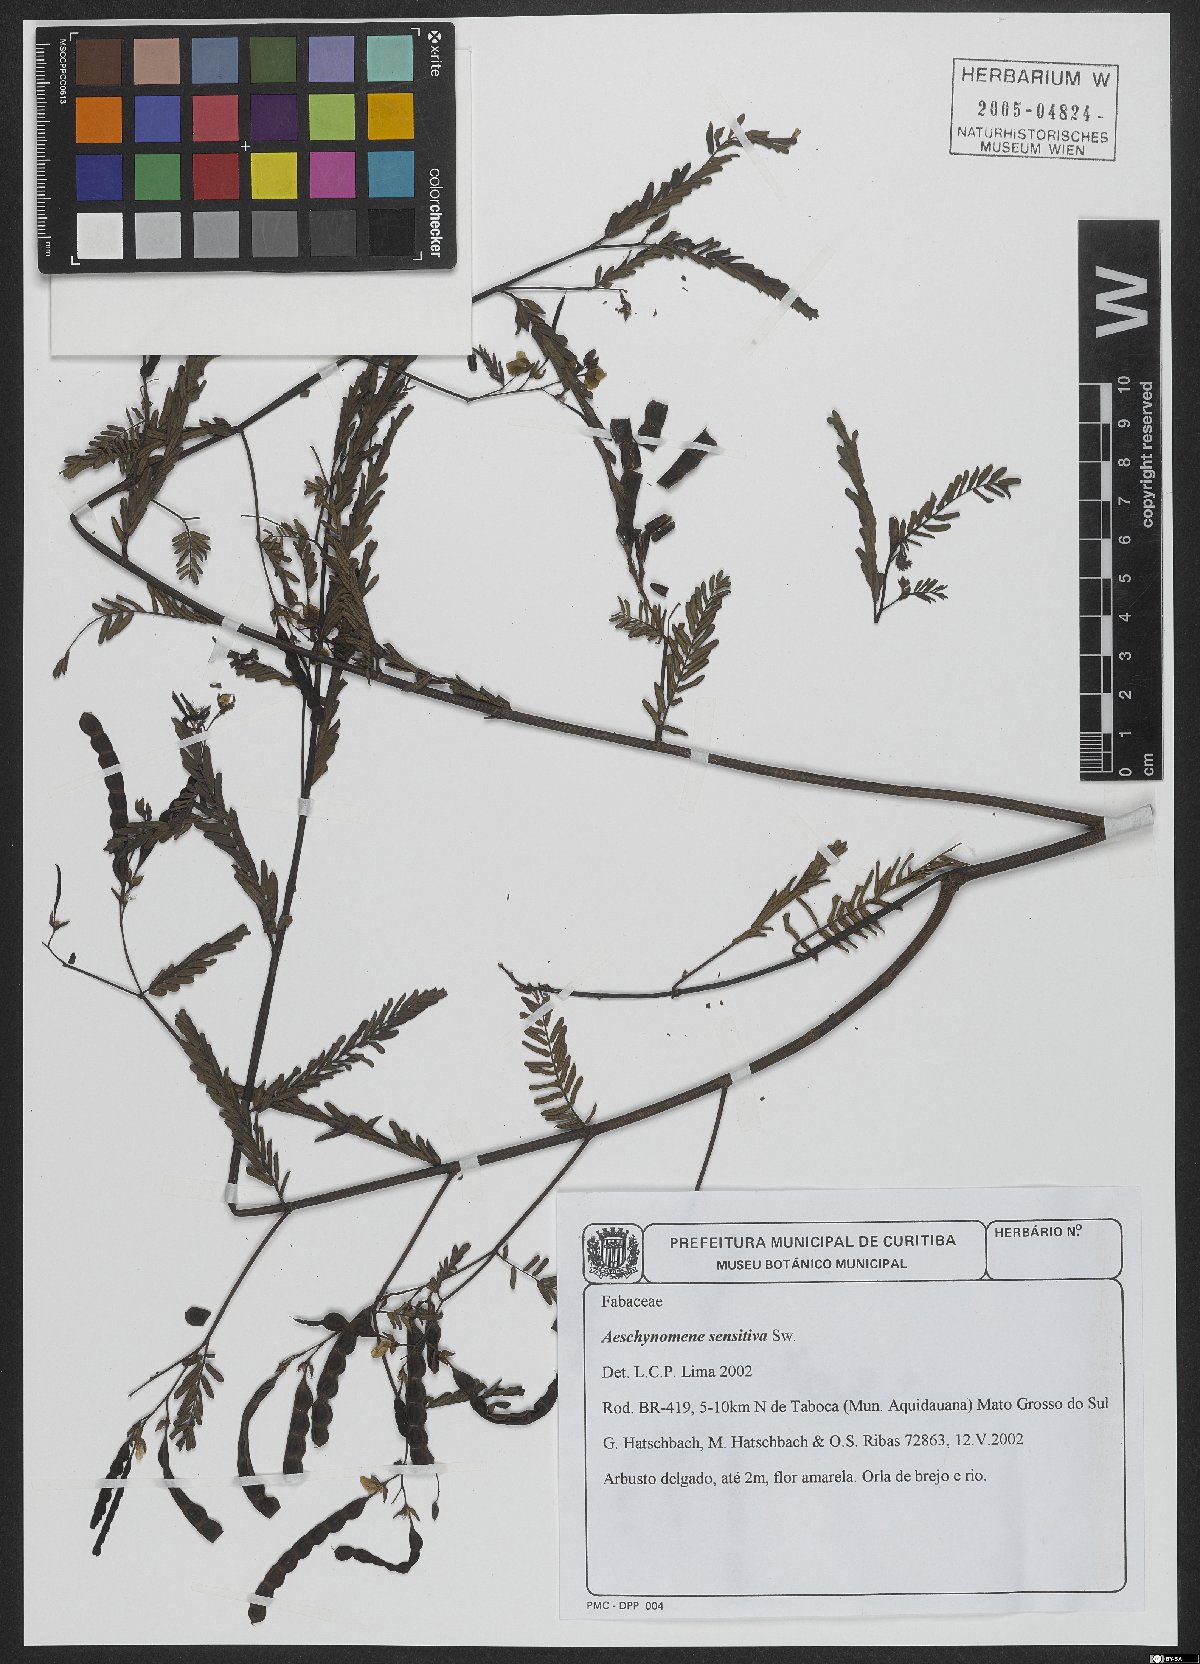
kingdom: Plantae
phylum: Tracheophyta
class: Magnoliopsida
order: Fabales
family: Fabaceae
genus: Aeschynomene
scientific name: Aeschynomene sensitiva
